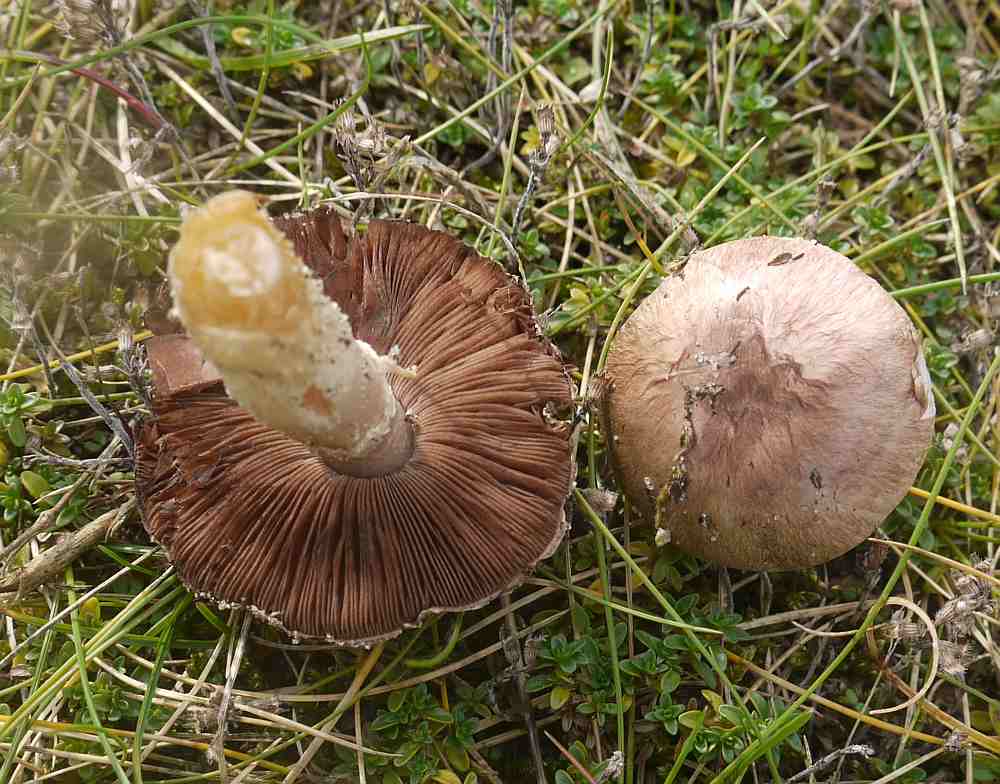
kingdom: Fungi
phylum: Basidiomycota
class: Agaricomycetes
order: Agaricales
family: Agaricaceae
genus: Agaricus
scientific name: Agaricus cupreobrunneus
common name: kobberbrun champignon
